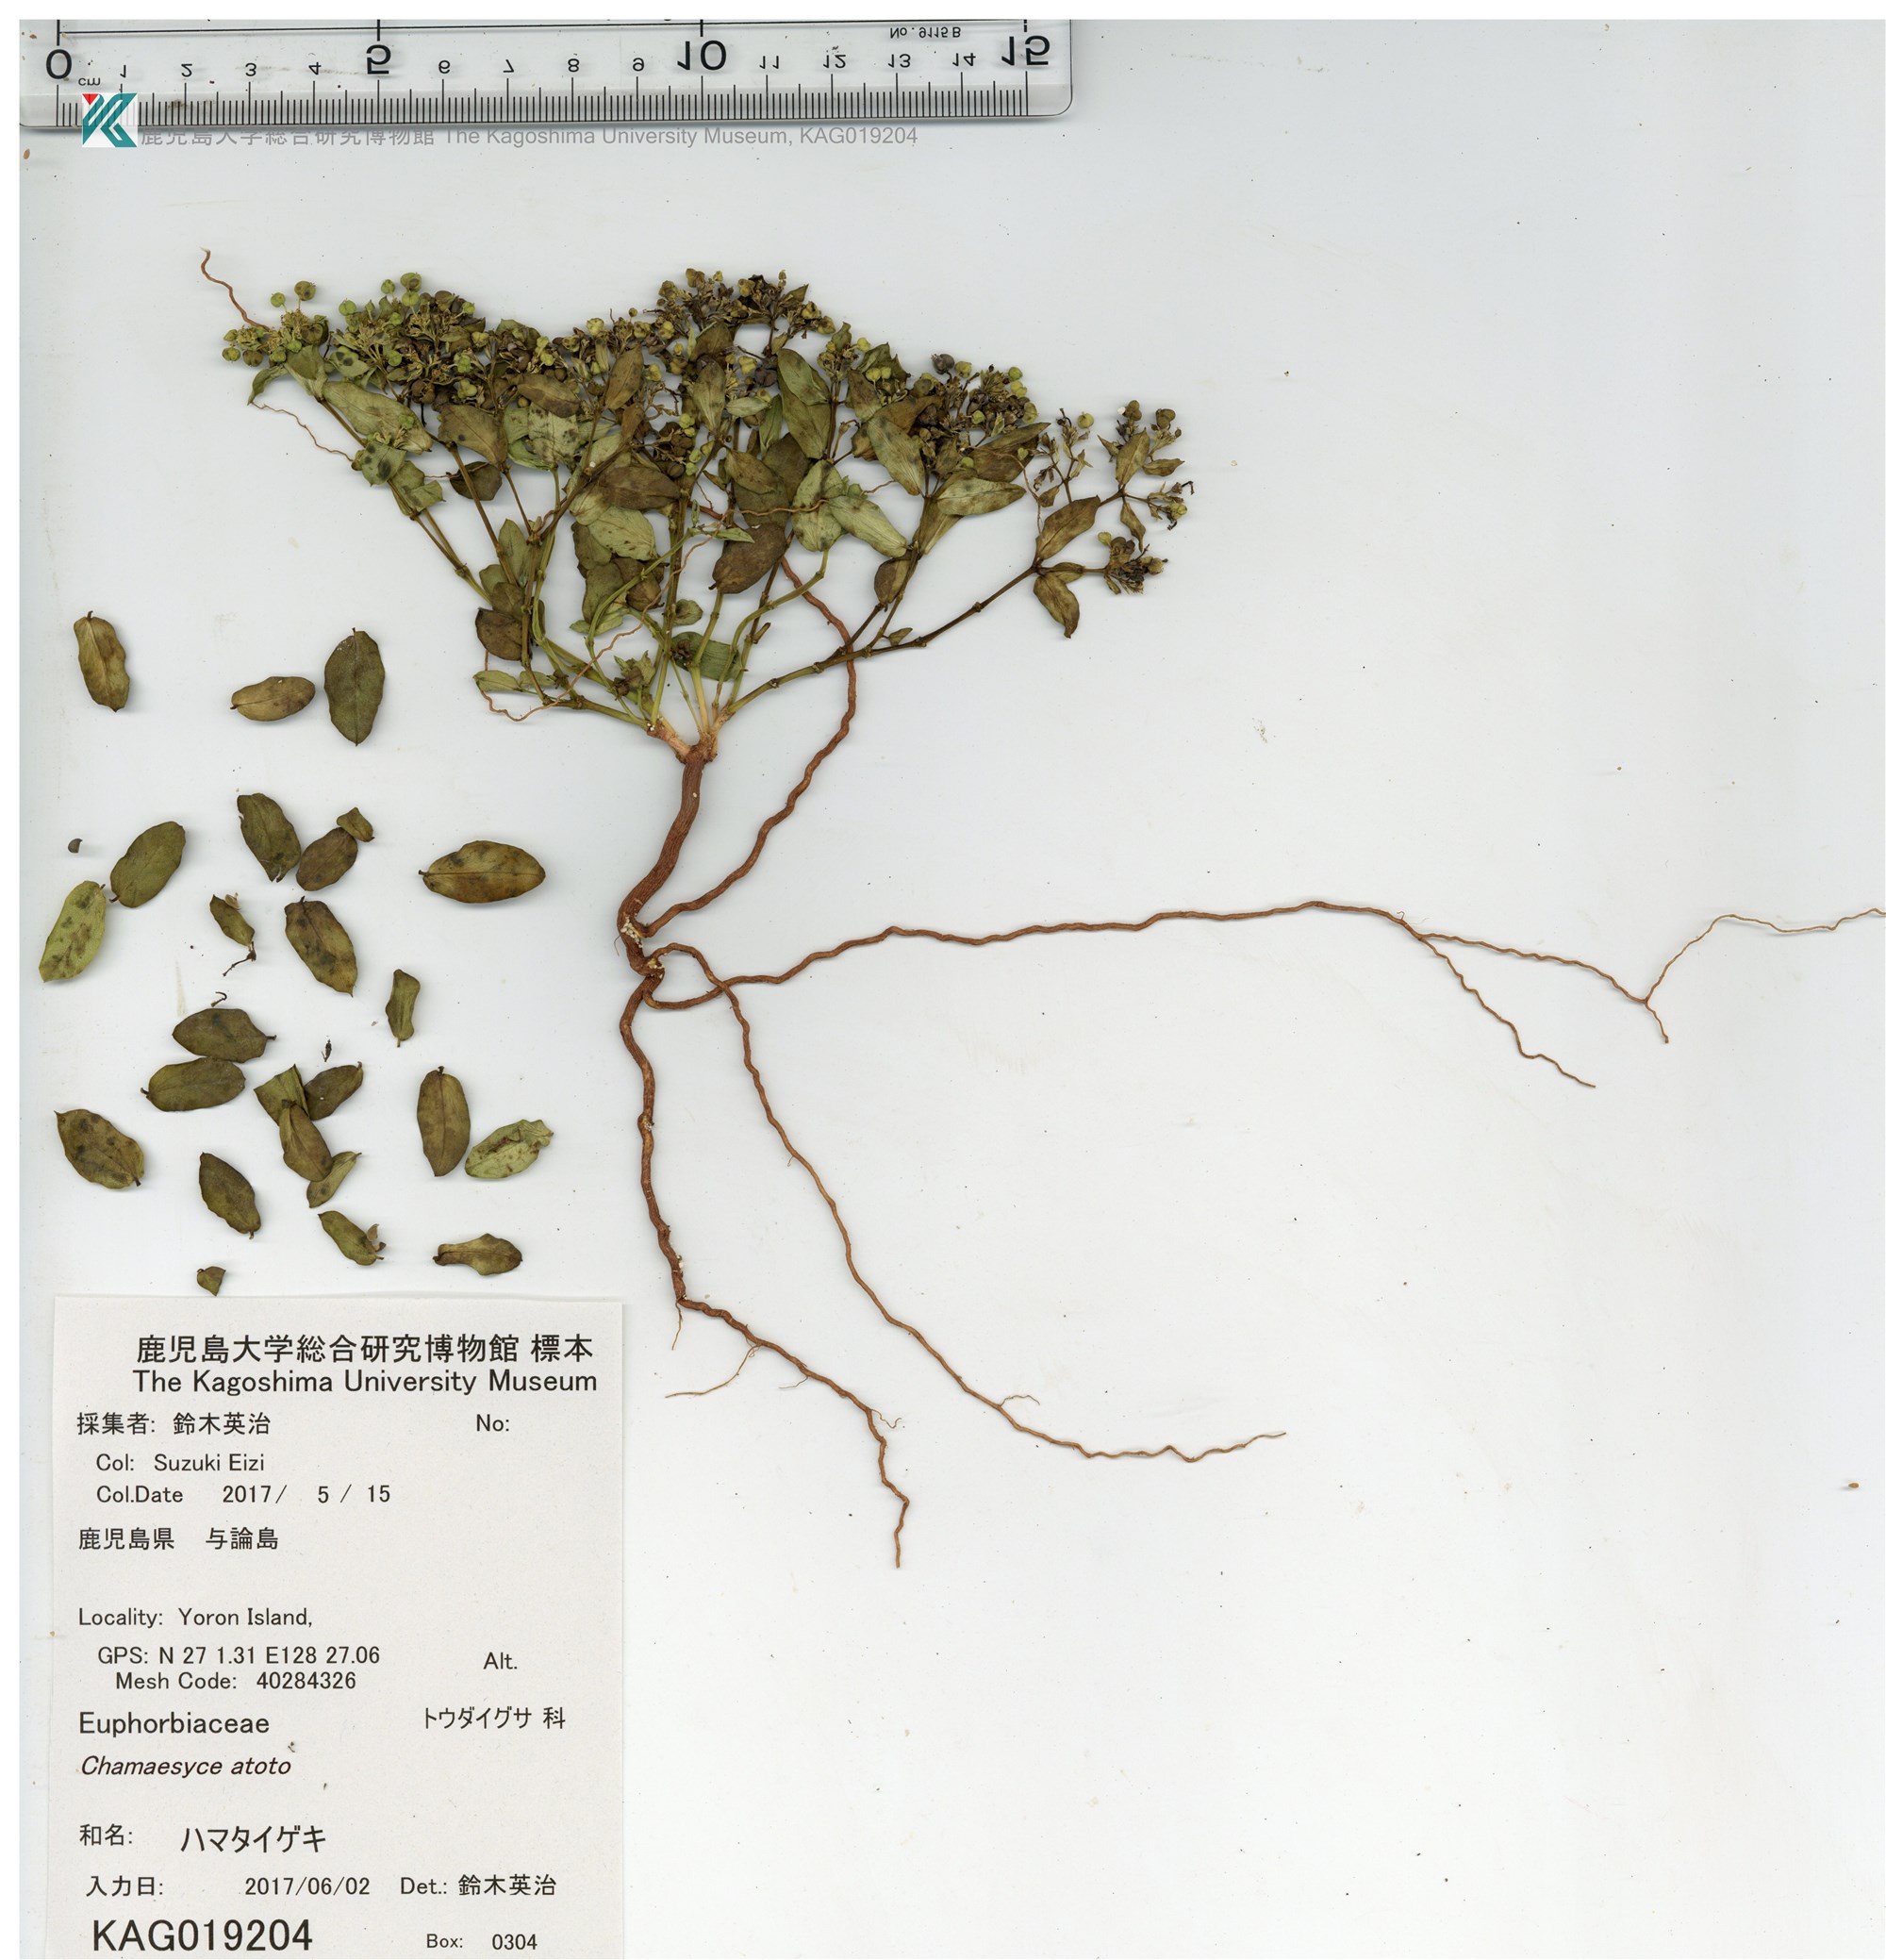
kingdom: Plantae
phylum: Tracheophyta
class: Magnoliopsida
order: Malpighiales
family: Euphorbiaceae
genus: Euphorbia
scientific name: Euphorbia atoto
